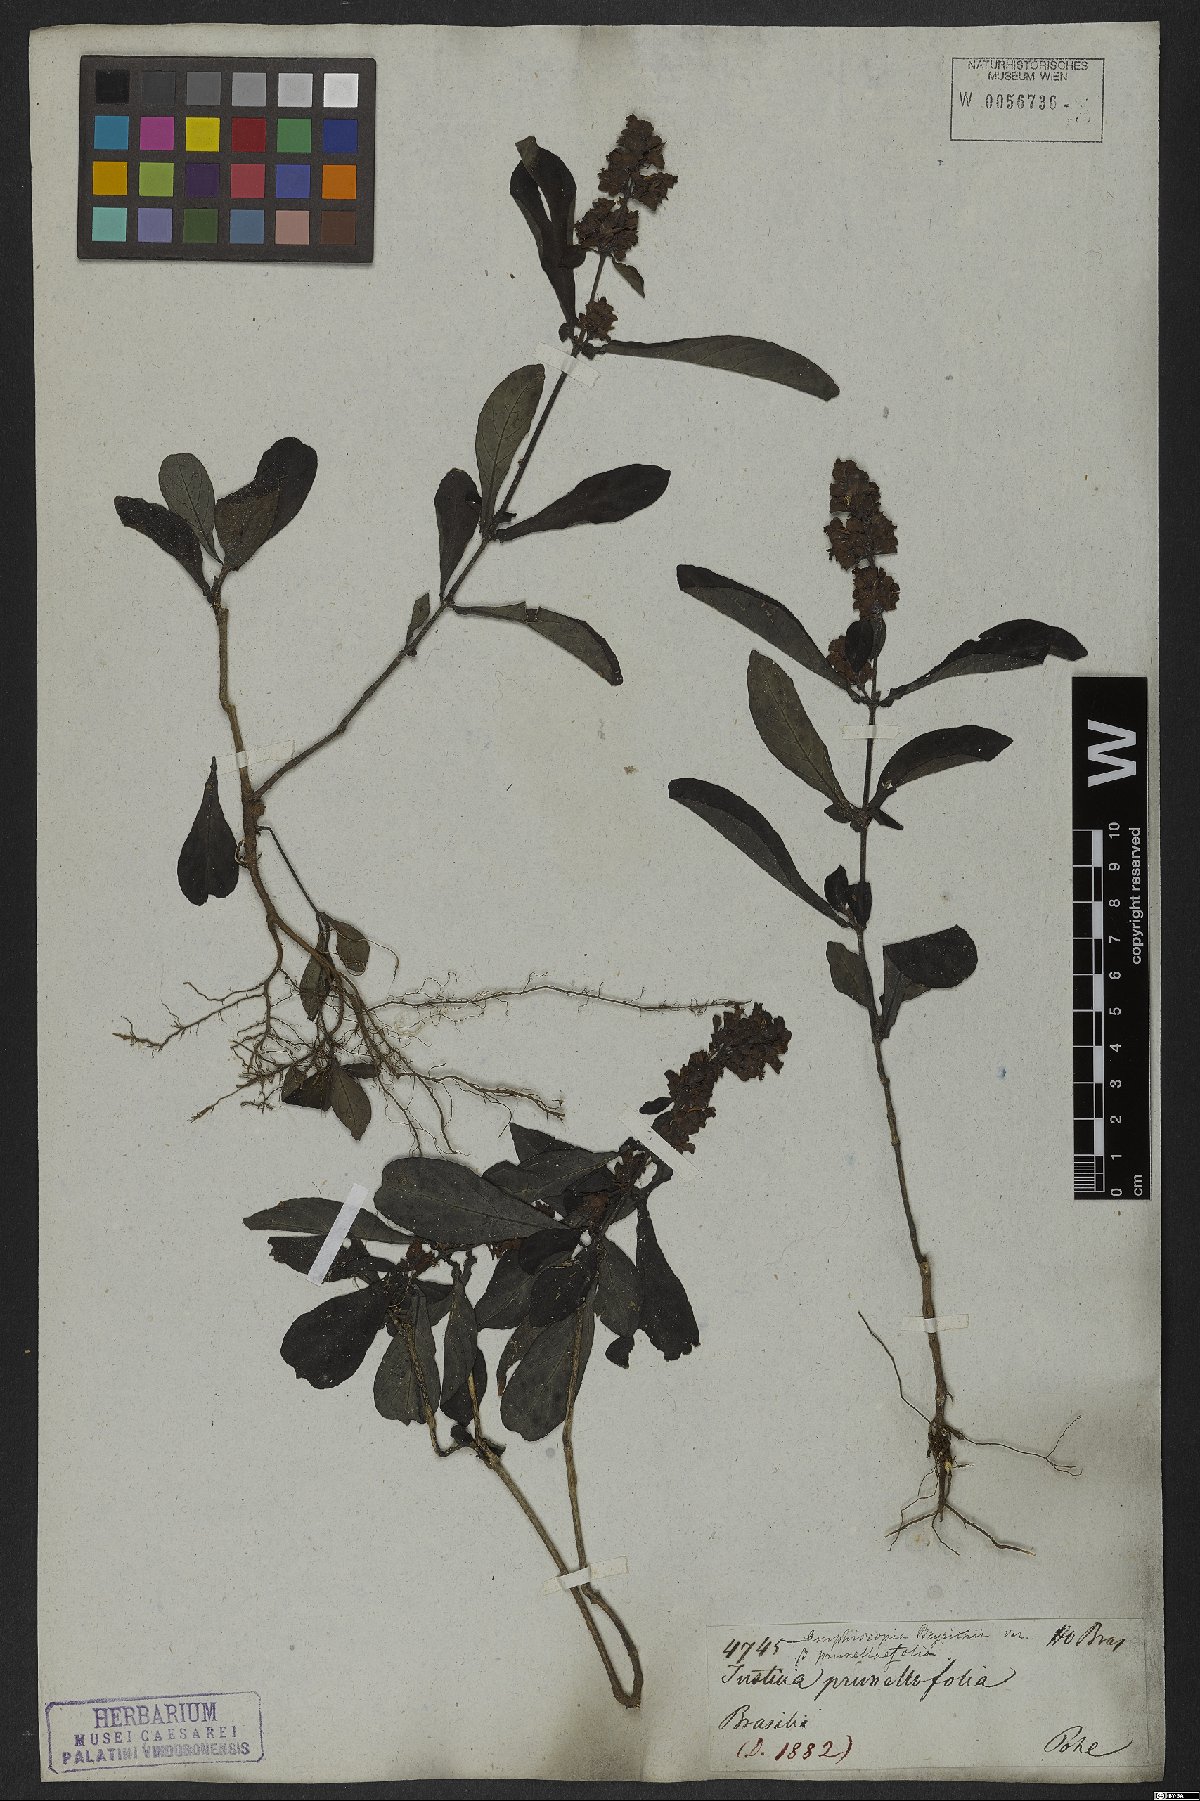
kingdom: Plantae
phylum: Tracheophyta
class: Magnoliopsida
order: Lamiales
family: Acanthaceae
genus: Dianthera
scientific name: Dianthera brasiliensis
